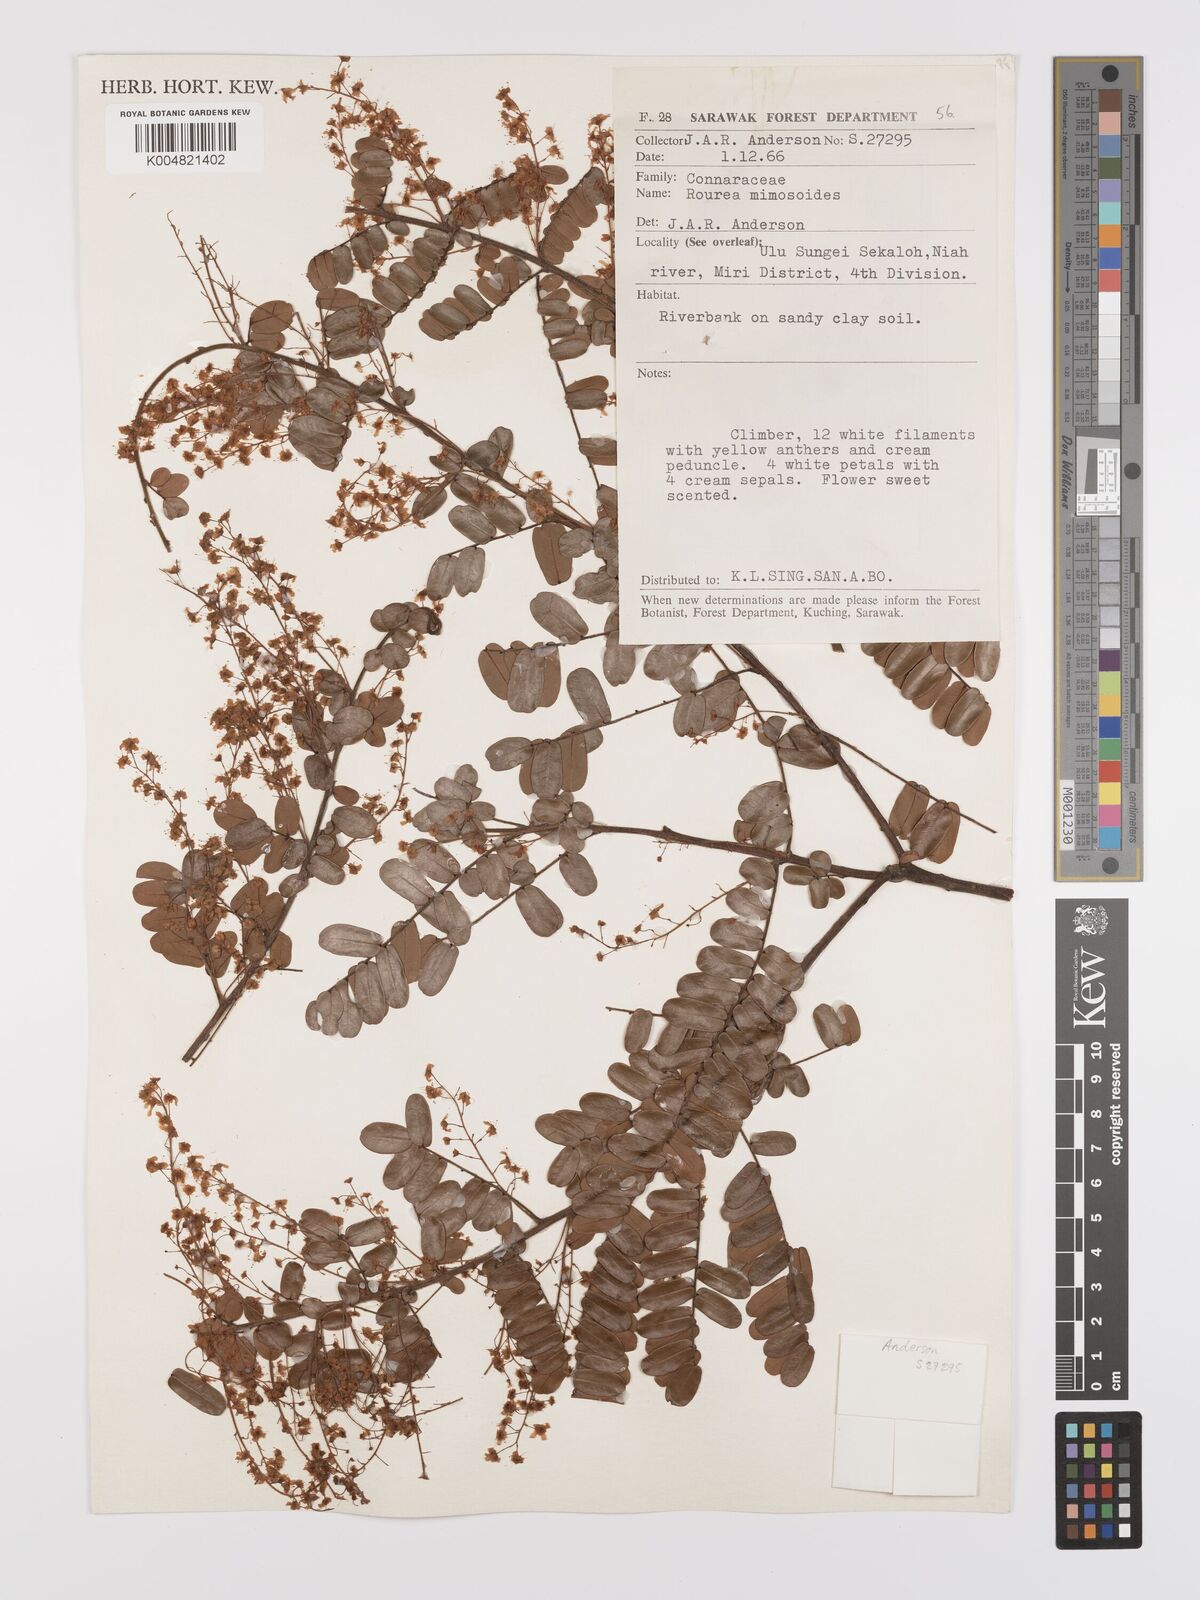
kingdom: Plantae
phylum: Tracheophyta
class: Magnoliopsida
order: Oxalidales
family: Connaraceae
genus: Rourea
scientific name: Rourea mimosoides
